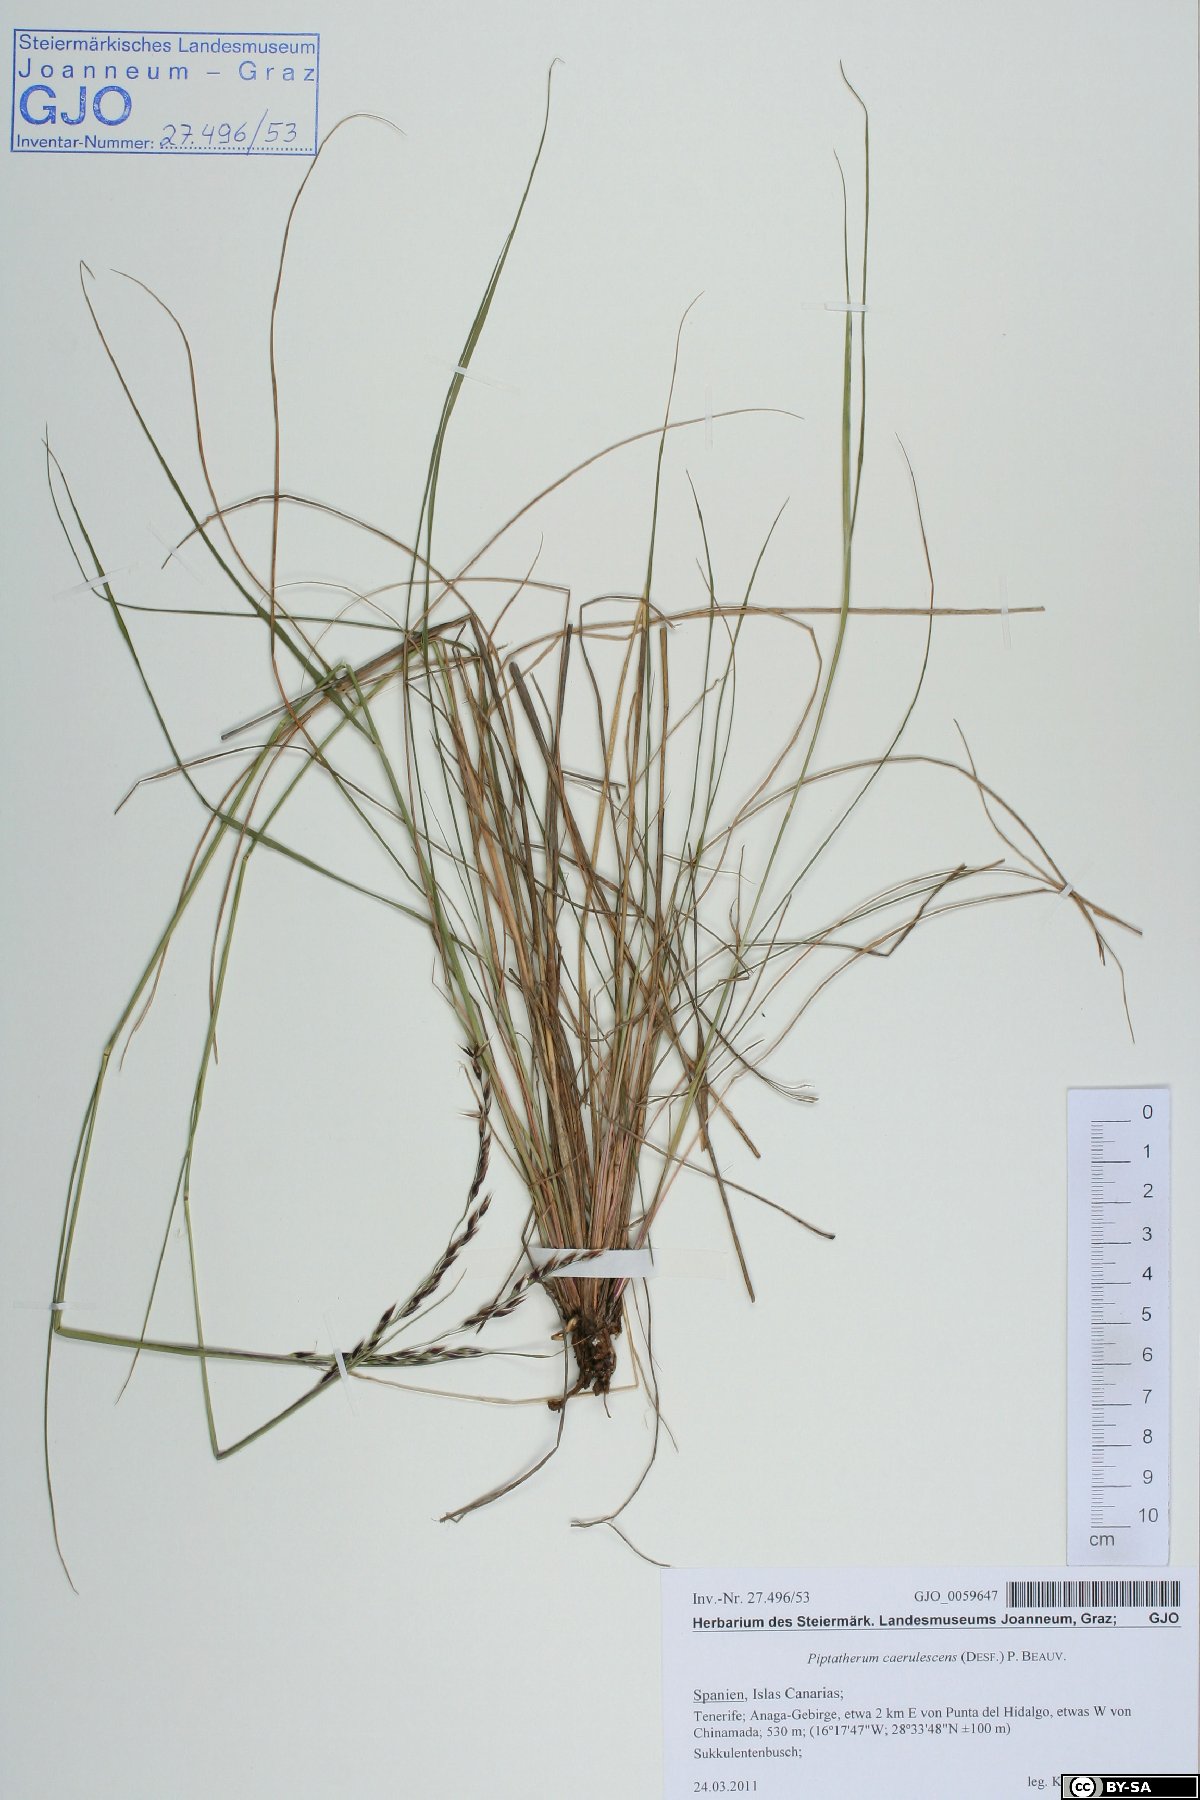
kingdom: Plantae
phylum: Tracheophyta
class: Liliopsida
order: Poales
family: Poaceae
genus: Piptatherum
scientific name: Piptatherum coerulescens
